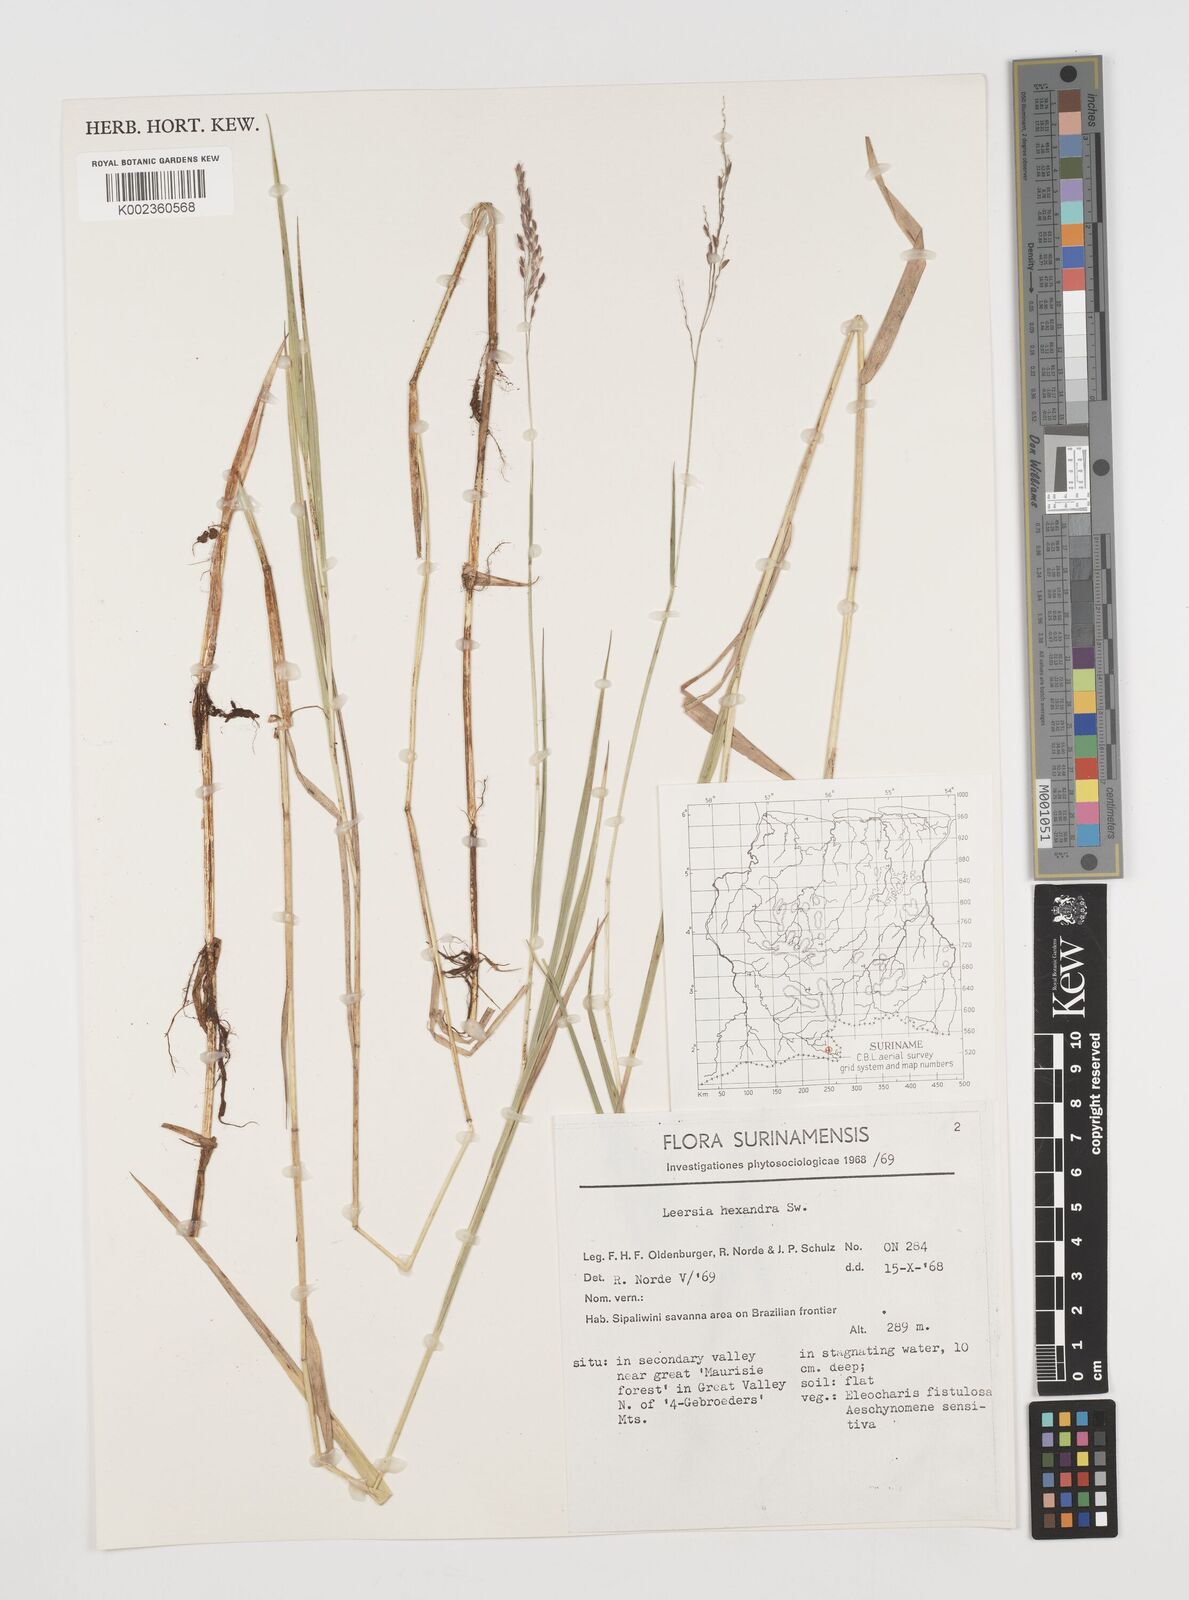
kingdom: Plantae
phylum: Tracheophyta
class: Liliopsida
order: Poales
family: Poaceae
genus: Leersia
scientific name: Leersia hexandra
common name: Southern cut grass
